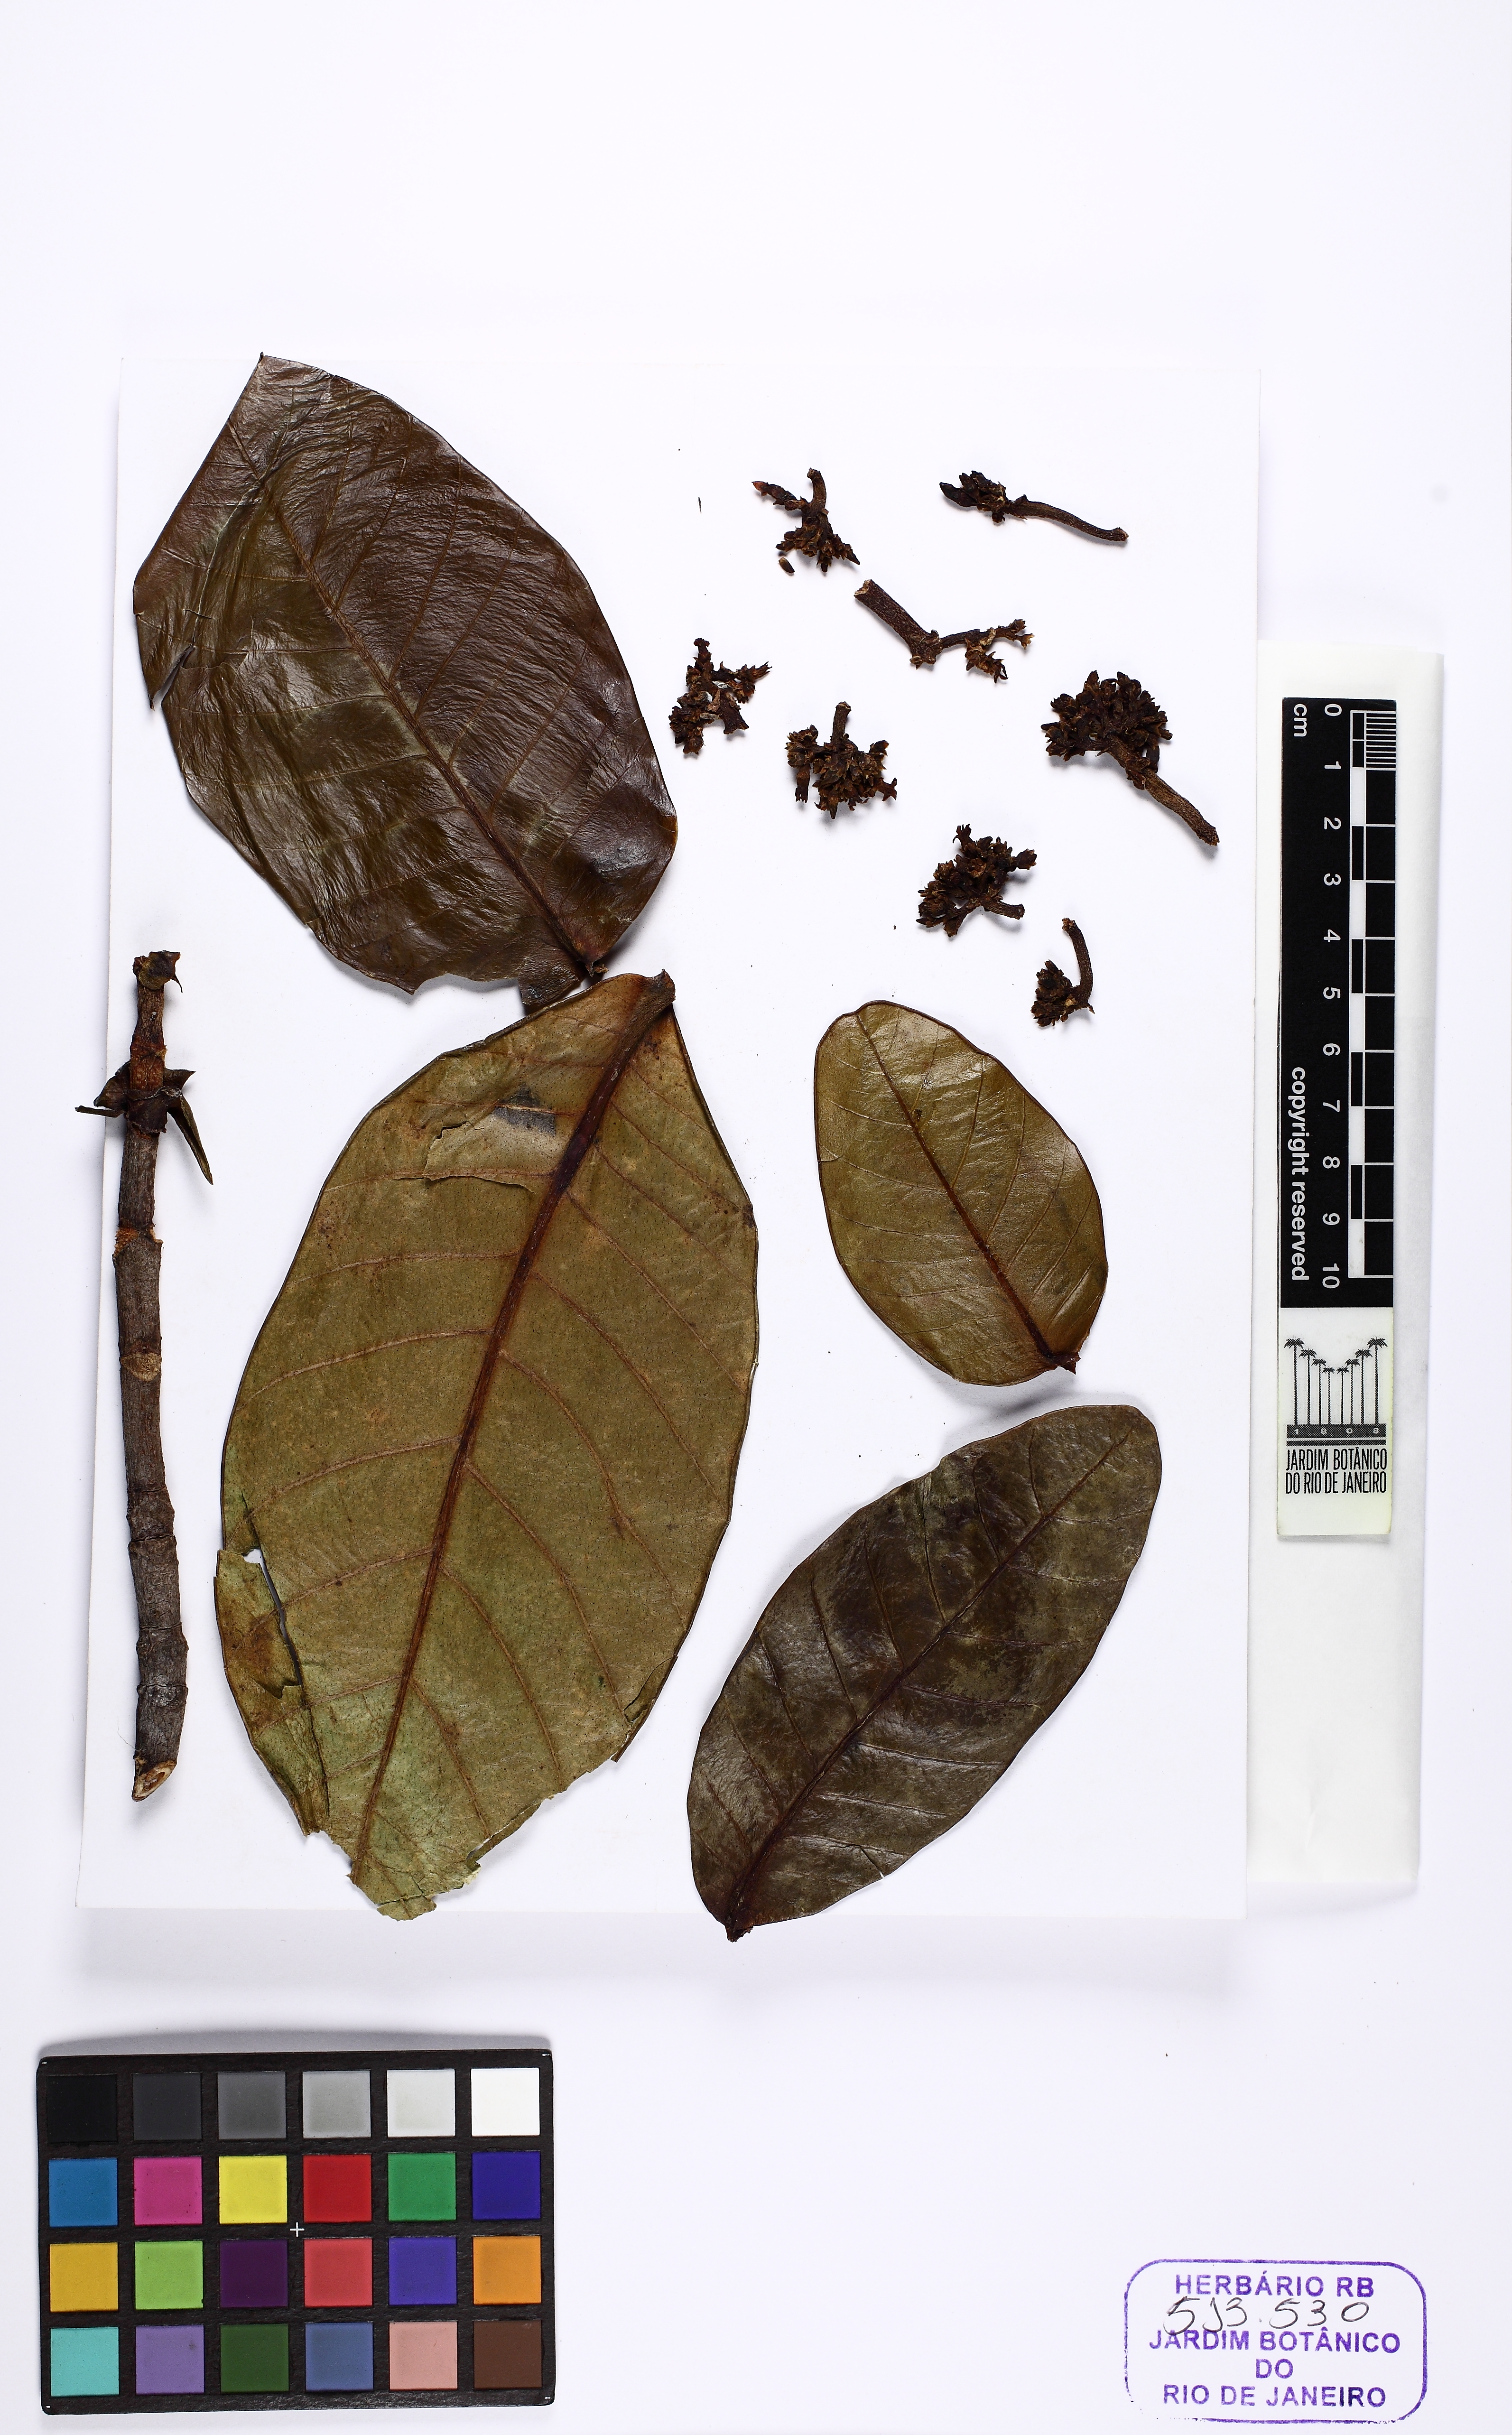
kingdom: Plantae
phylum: Tracheophyta
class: Magnoliopsida
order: Gentianales
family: Apocynaceae
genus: Neocouma
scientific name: Neocouma parviflora
